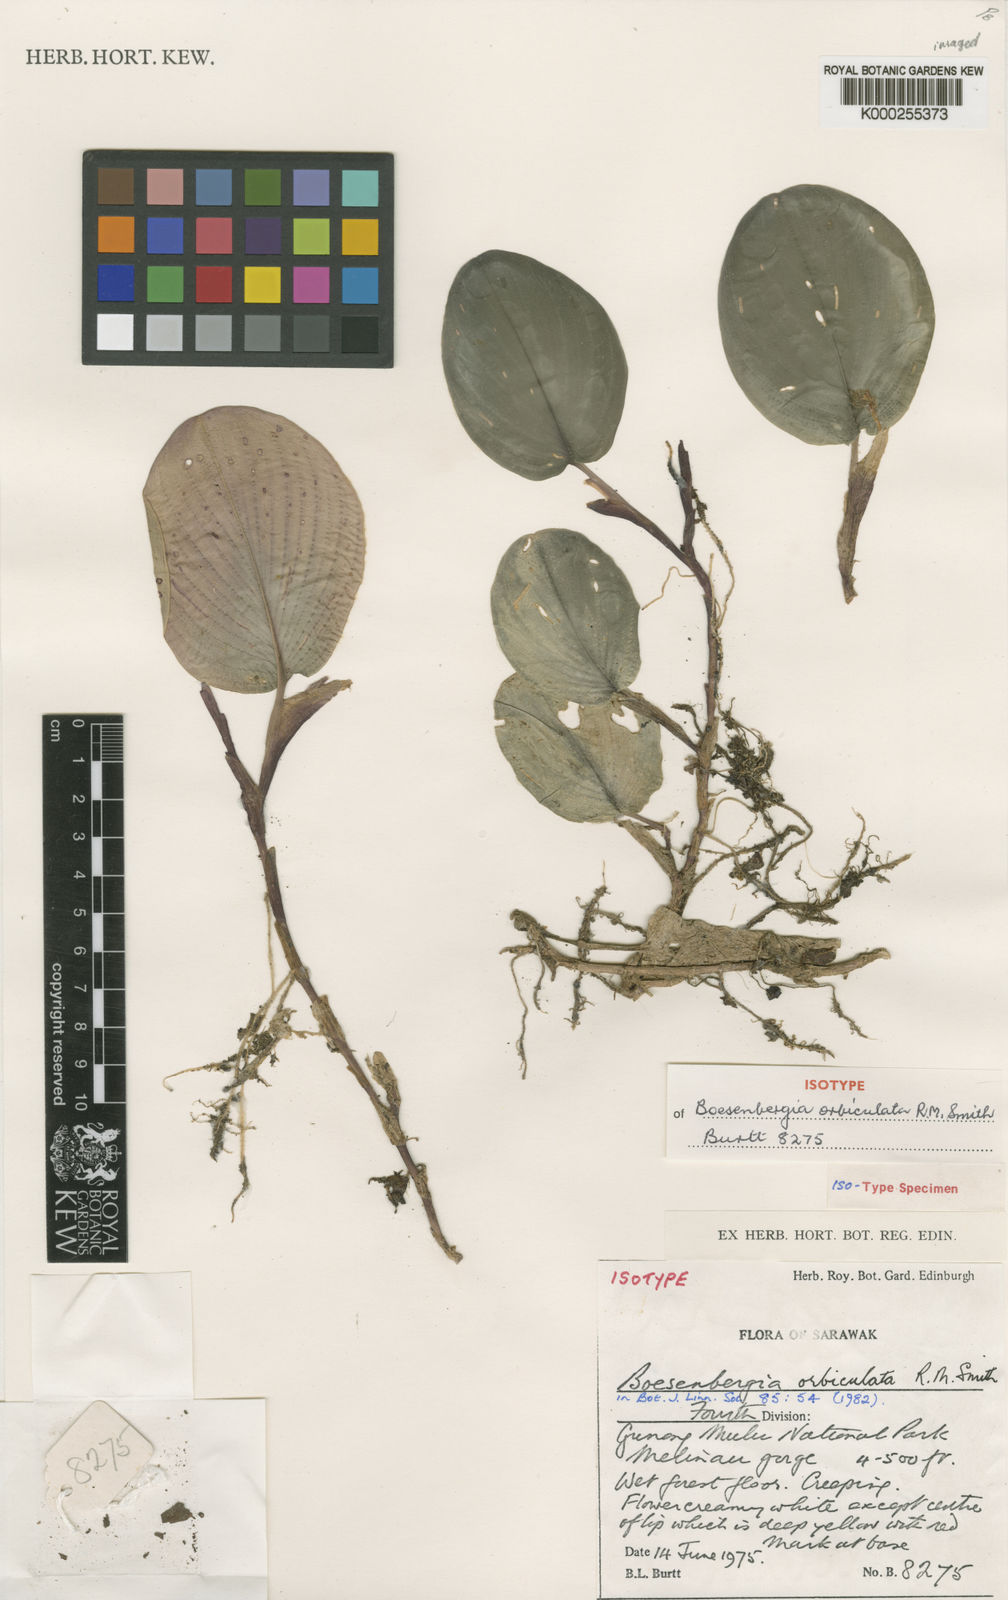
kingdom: Plantae
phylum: Tracheophyta
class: Liliopsida
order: Zingiberales
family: Zingiberaceae
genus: Boesenbergia
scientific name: Boesenbergia orbiculata
